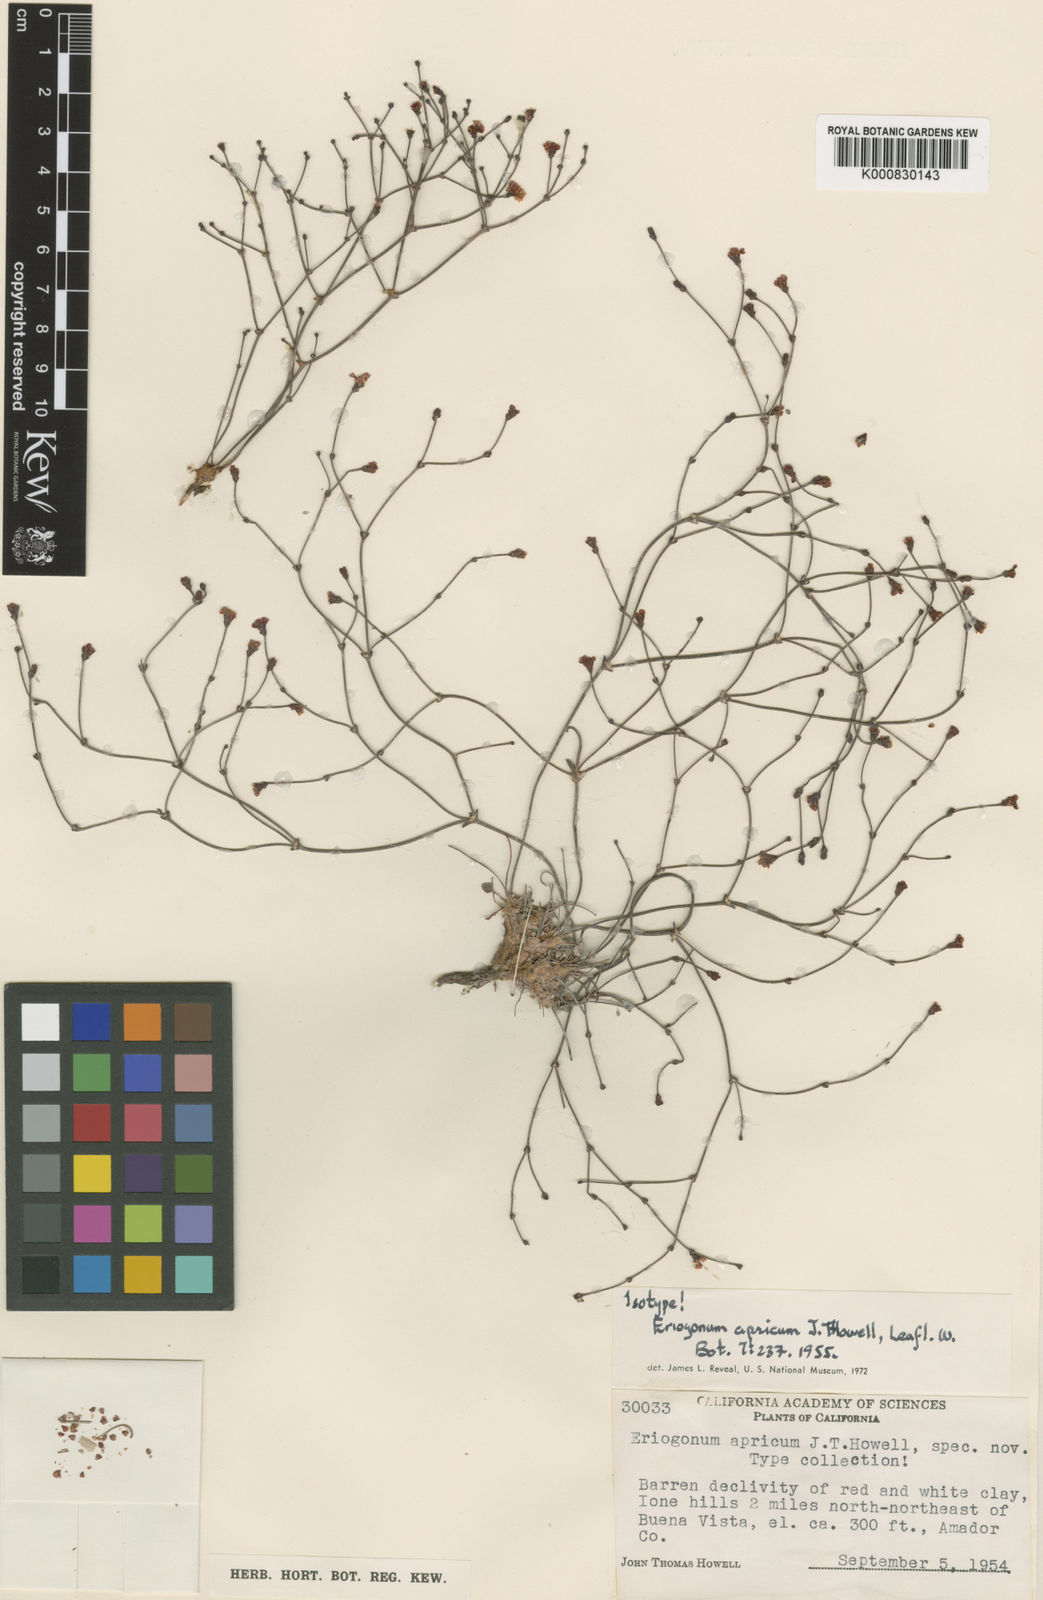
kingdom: Plantae
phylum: Tracheophyta
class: Magnoliopsida
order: Caryophyllales
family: Polygonaceae
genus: Eriogonum
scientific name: Eriogonum apricum
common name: Ione wild buckwheat
